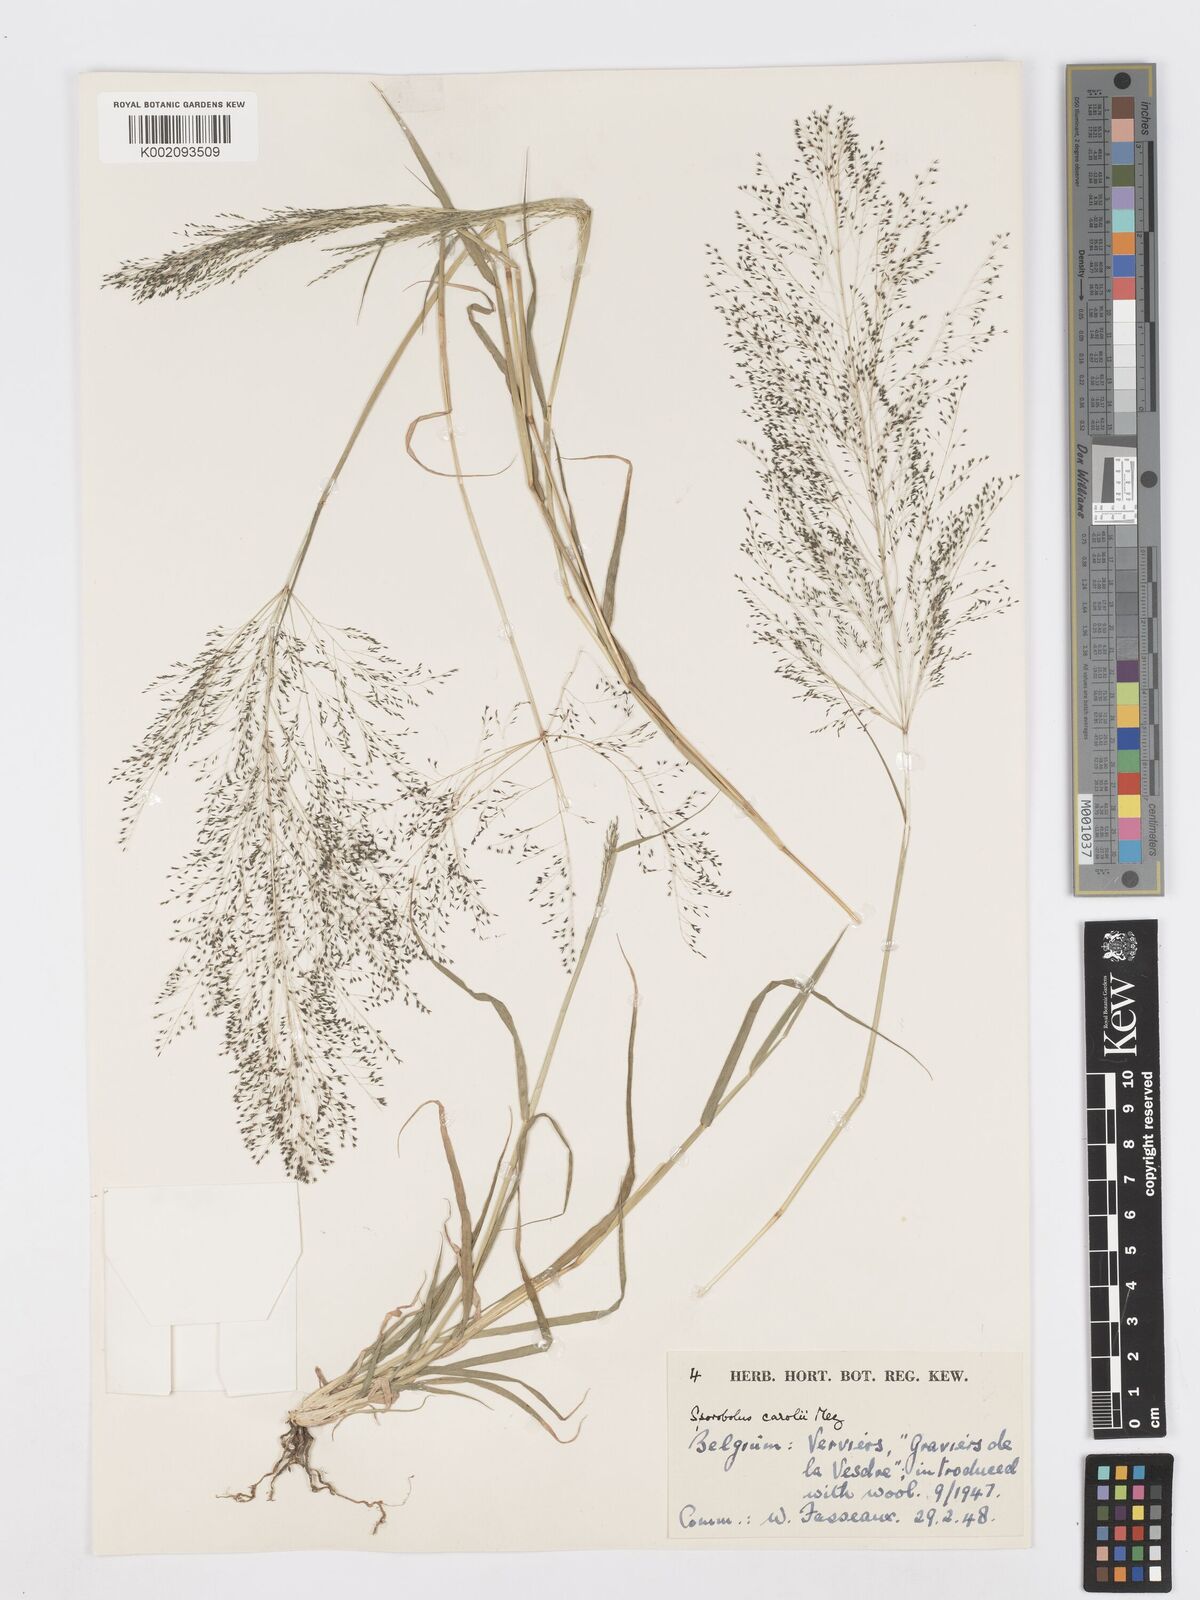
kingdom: Plantae
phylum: Tracheophyta
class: Liliopsida
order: Poales
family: Poaceae
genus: Sporobolus
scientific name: Sporobolus caroli
